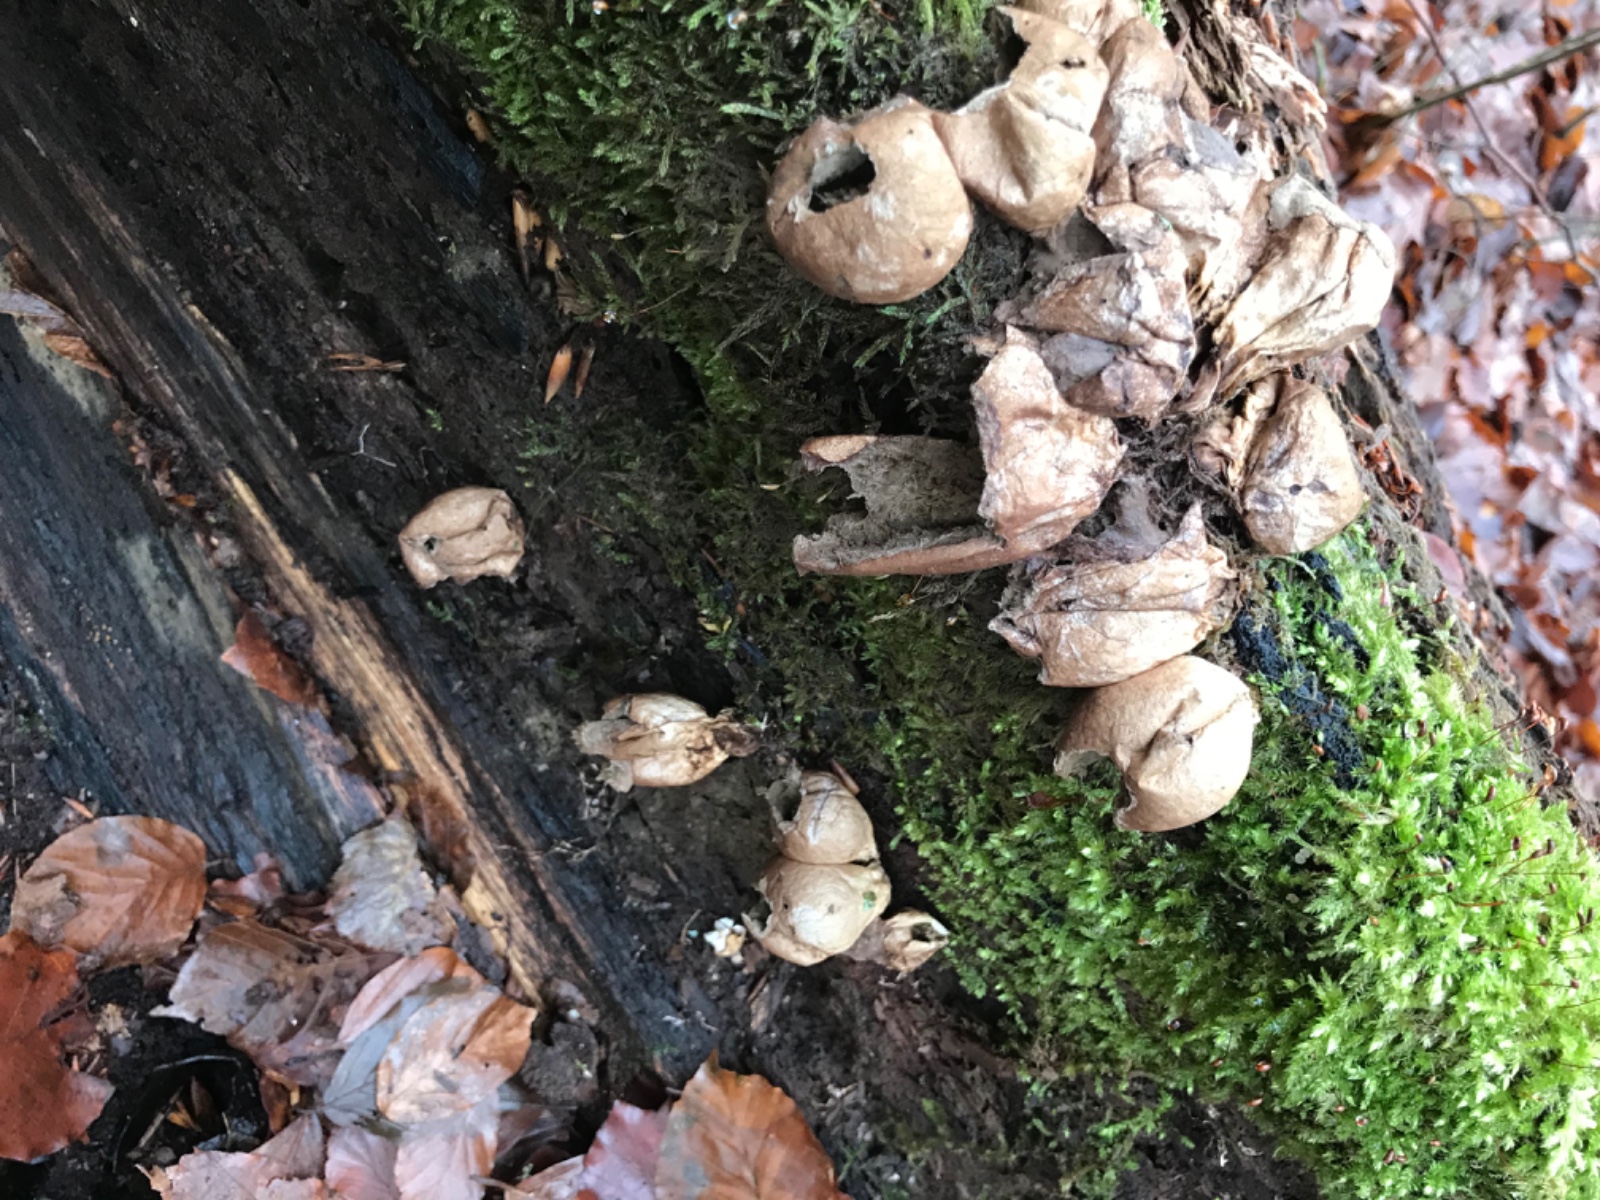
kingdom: Fungi
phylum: Basidiomycota
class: Agaricomycetes
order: Agaricales
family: Lycoperdaceae
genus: Apioperdon
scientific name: Apioperdon pyriforme
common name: pære-støvbold
